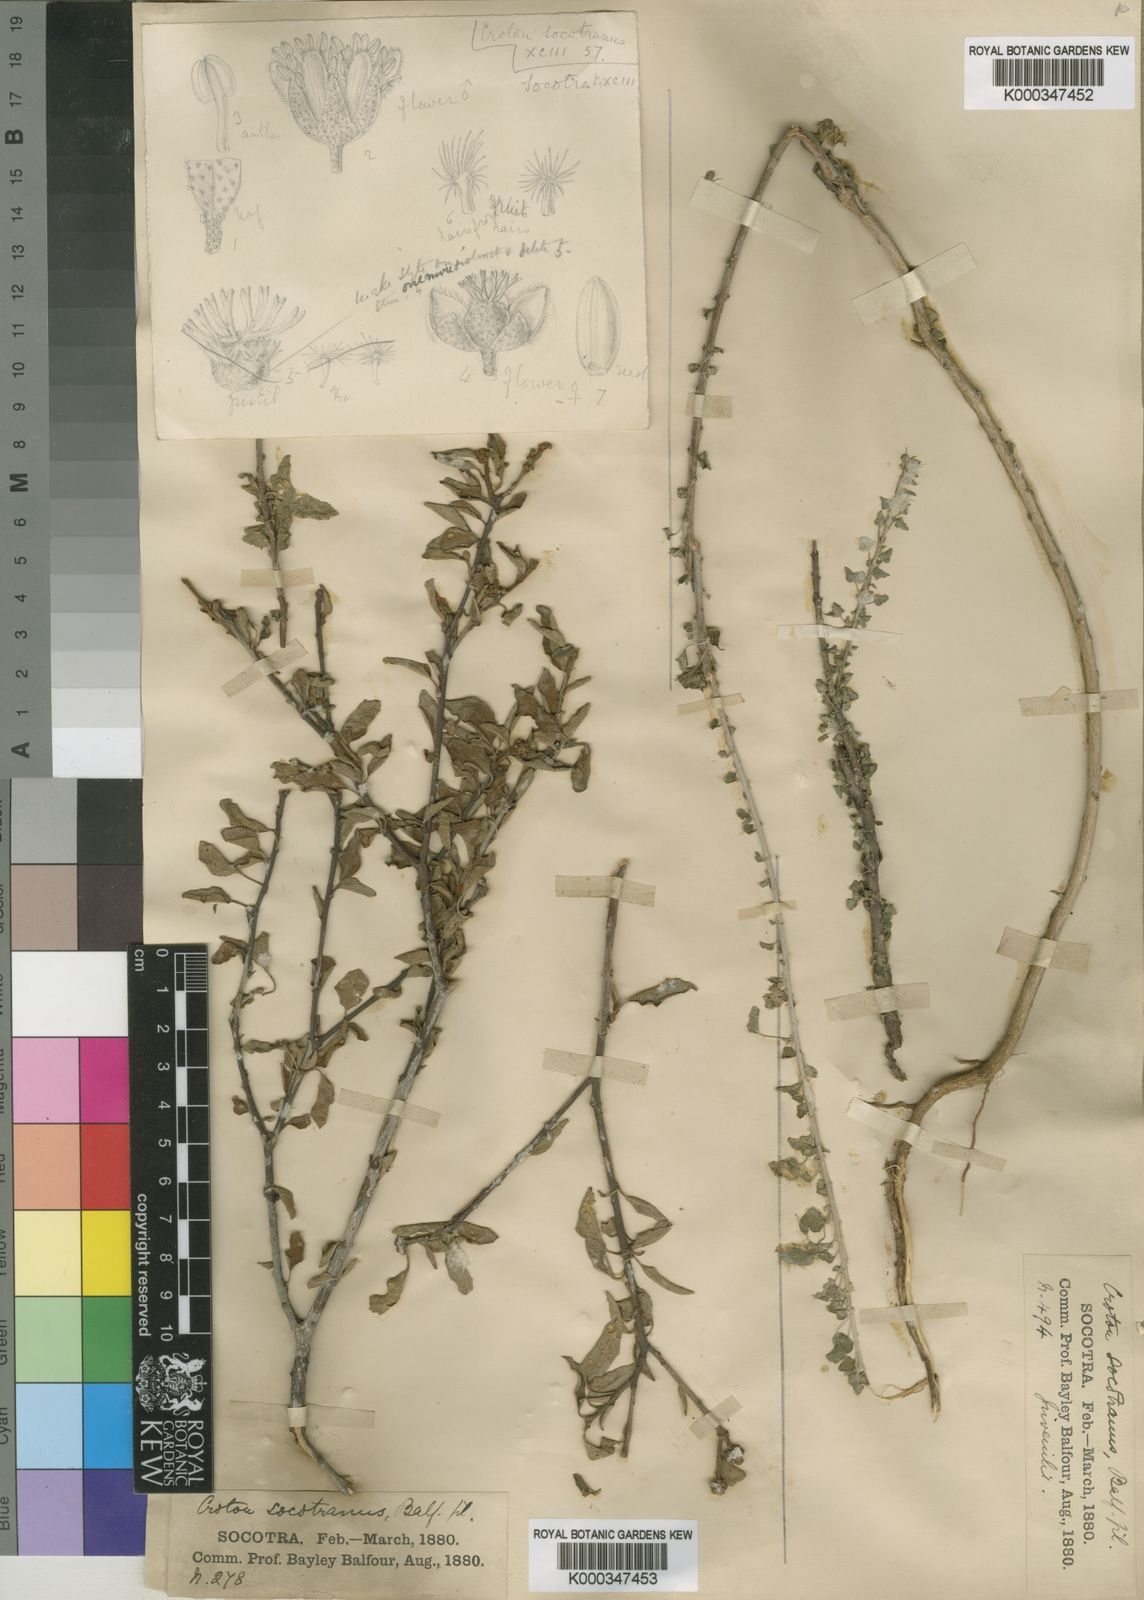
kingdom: Plantae
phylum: Tracheophyta
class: Magnoliopsida
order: Malpighiales
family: Euphorbiaceae
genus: Croton
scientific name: Croton socotranus
